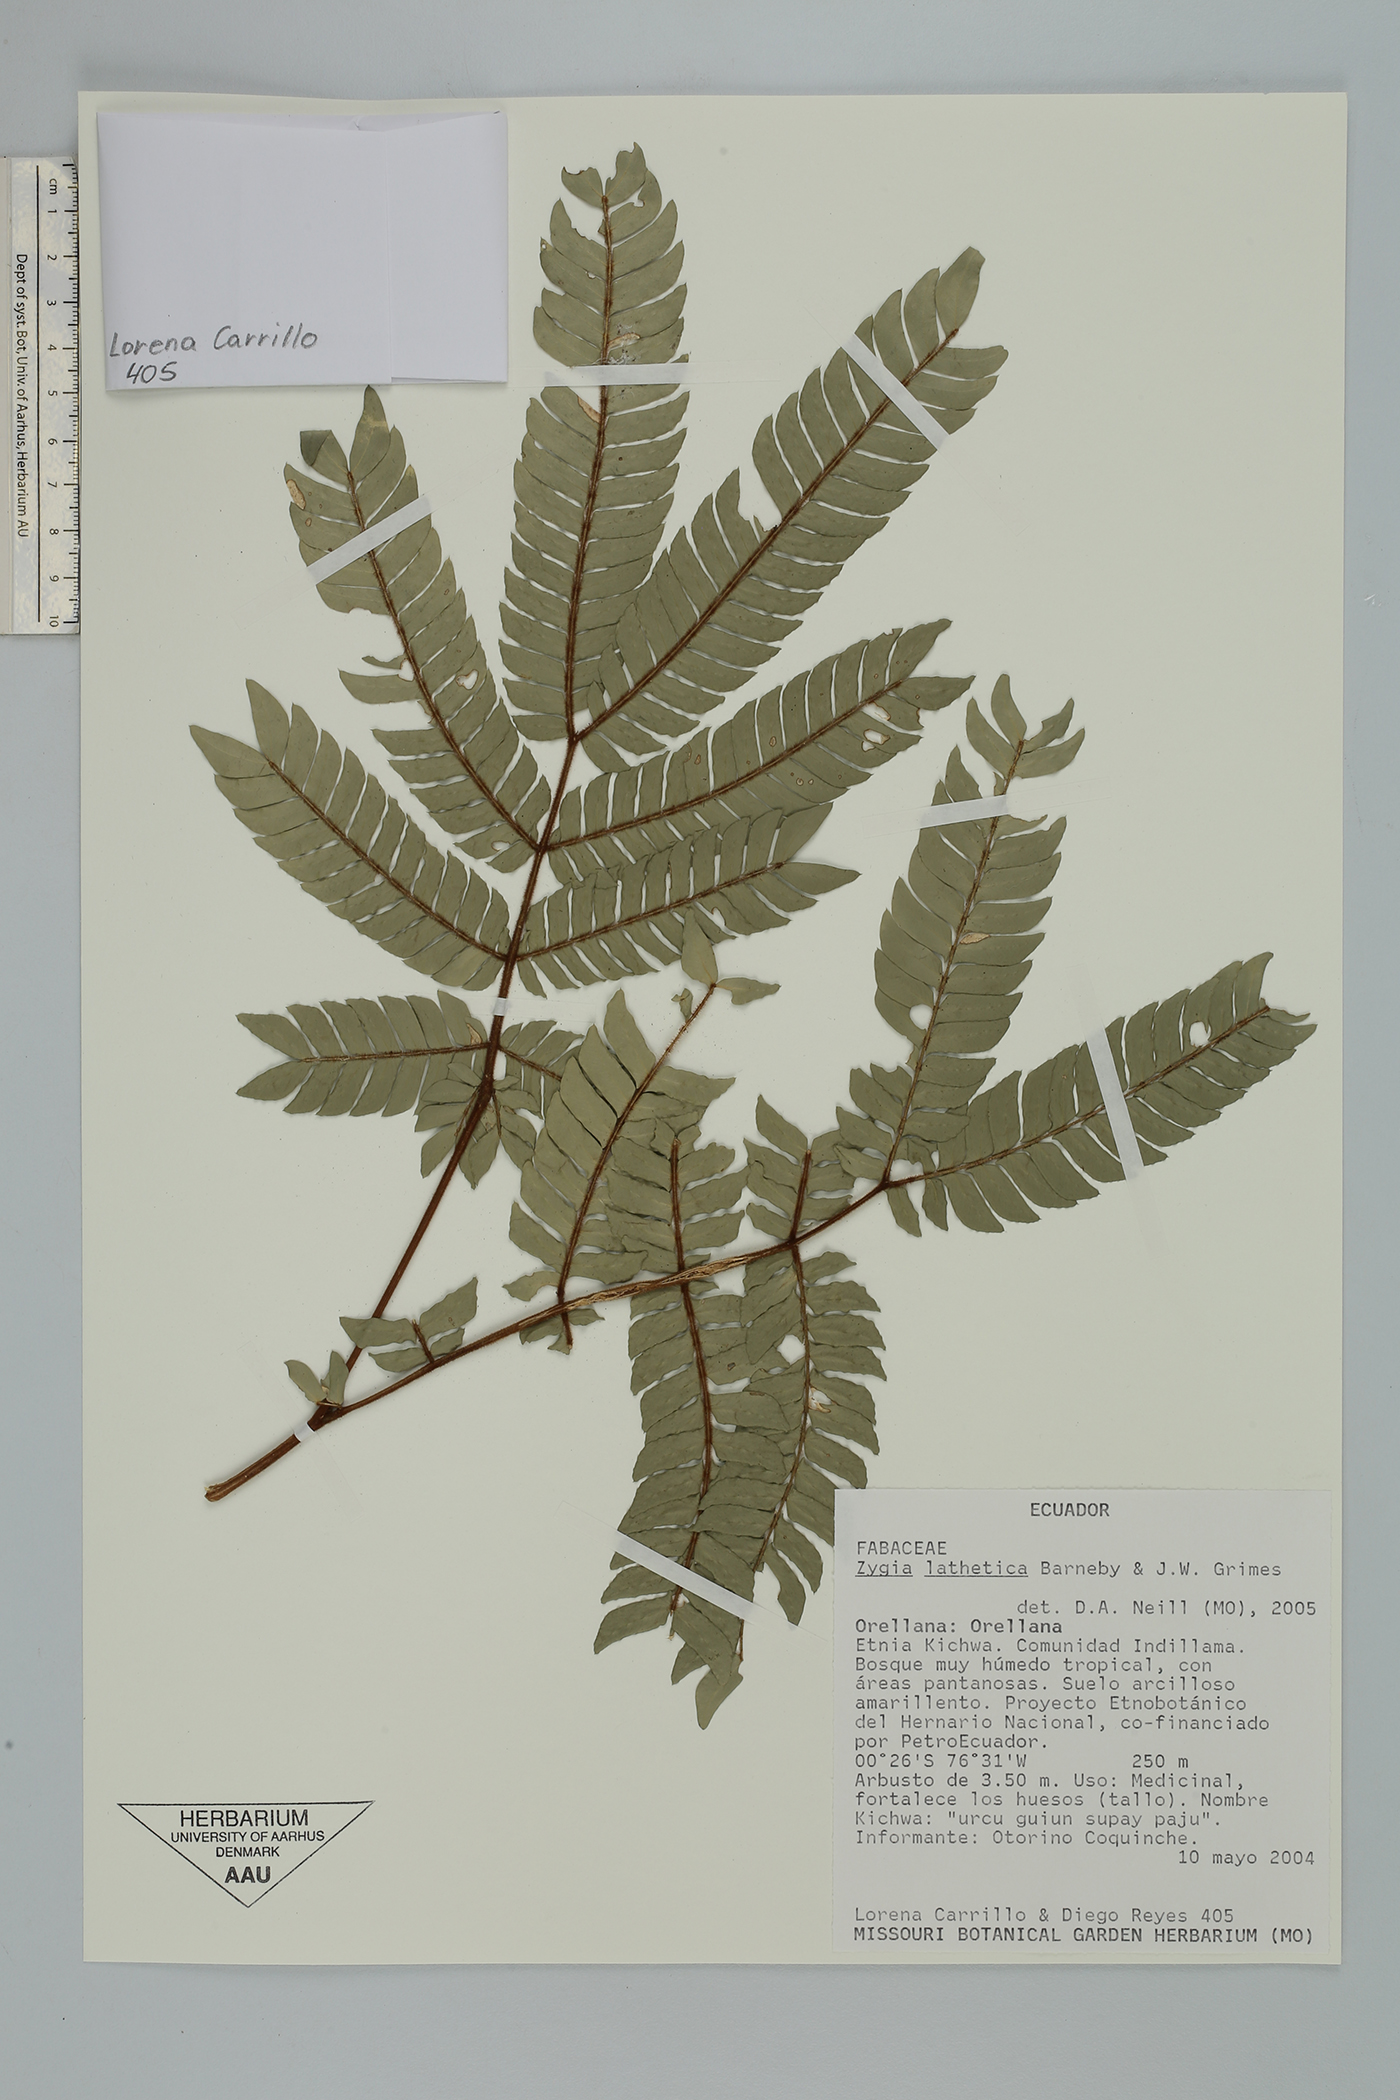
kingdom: Plantae
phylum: Tracheophyta
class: Magnoliopsida
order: Fabales
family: Fabaceae
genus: Zygia
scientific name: Zygia lathetica
